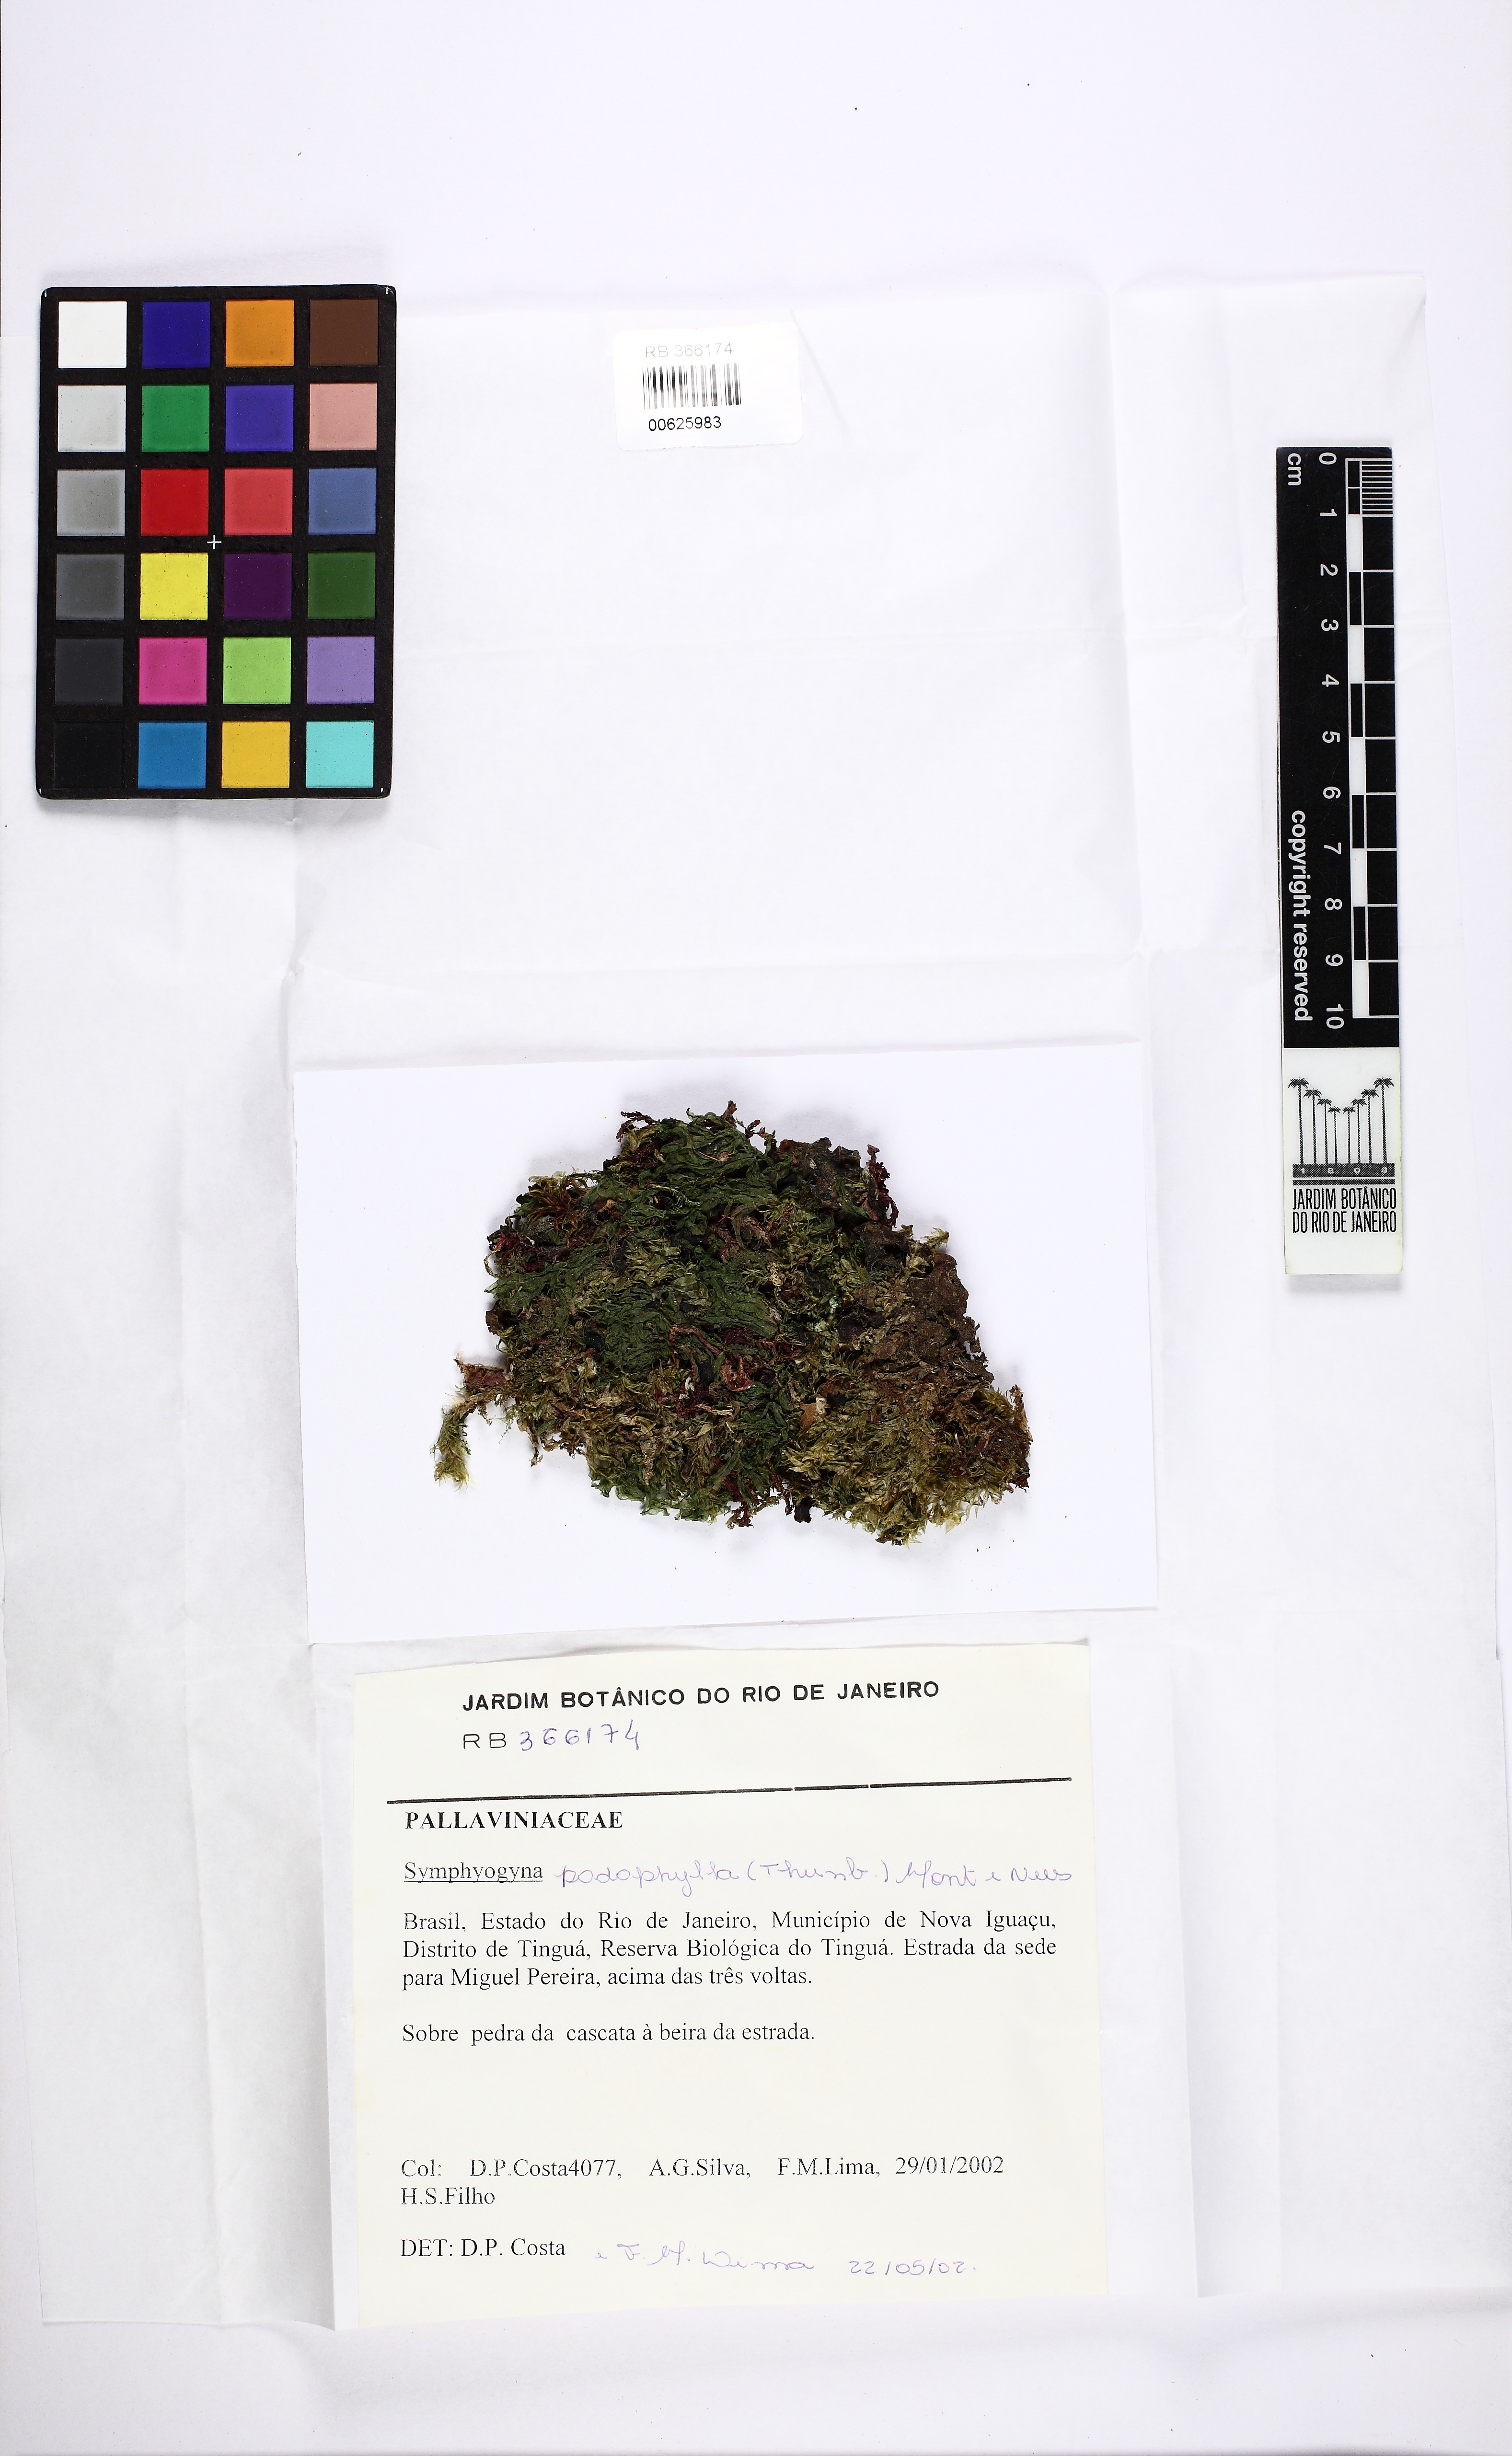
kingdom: Plantae
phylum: Marchantiophyta
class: Jungermanniopsida
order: Pallaviciniales
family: Pallaviciniaceae
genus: Symphyogyna
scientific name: Symphyogyna podophylla
